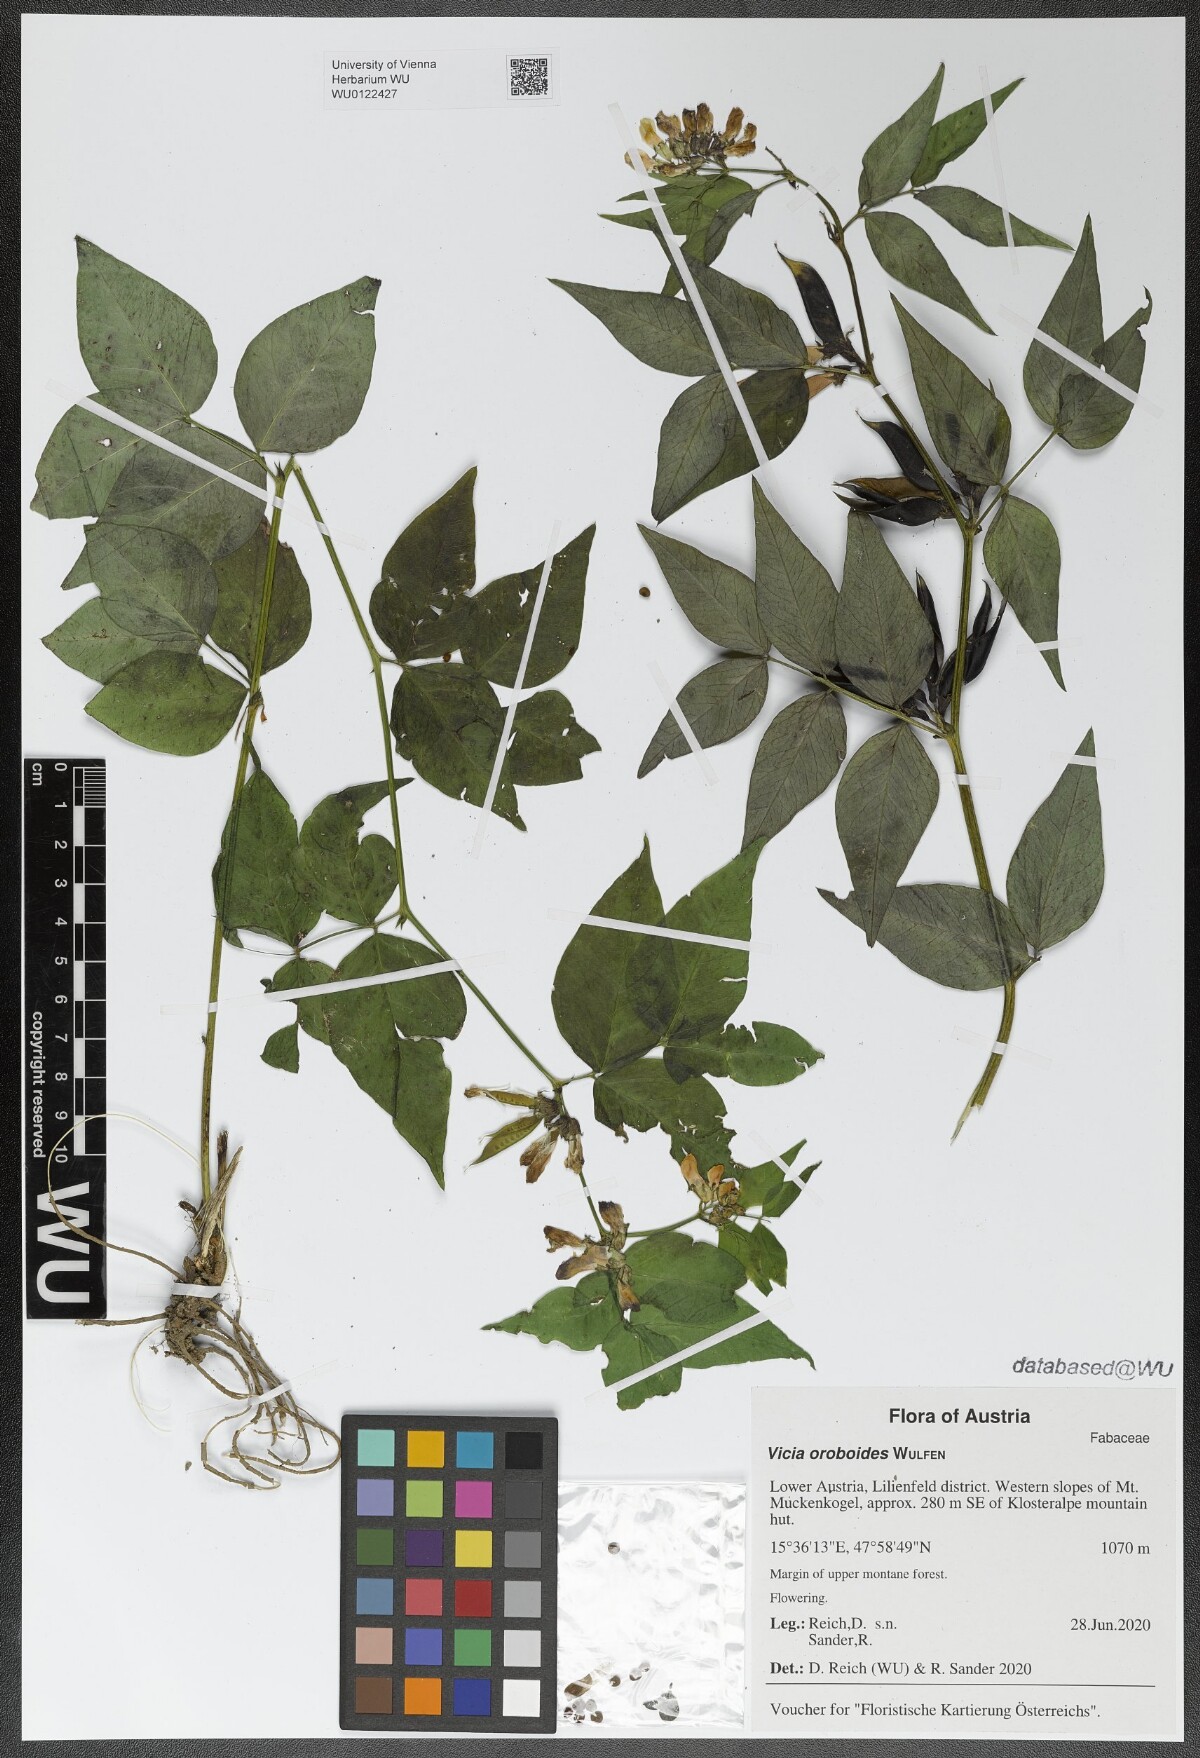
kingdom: Plantae
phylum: Tracheophyta
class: Magnoliopsida
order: Fabales
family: Fabaceae
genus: Vicia
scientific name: Vicia oroboides
